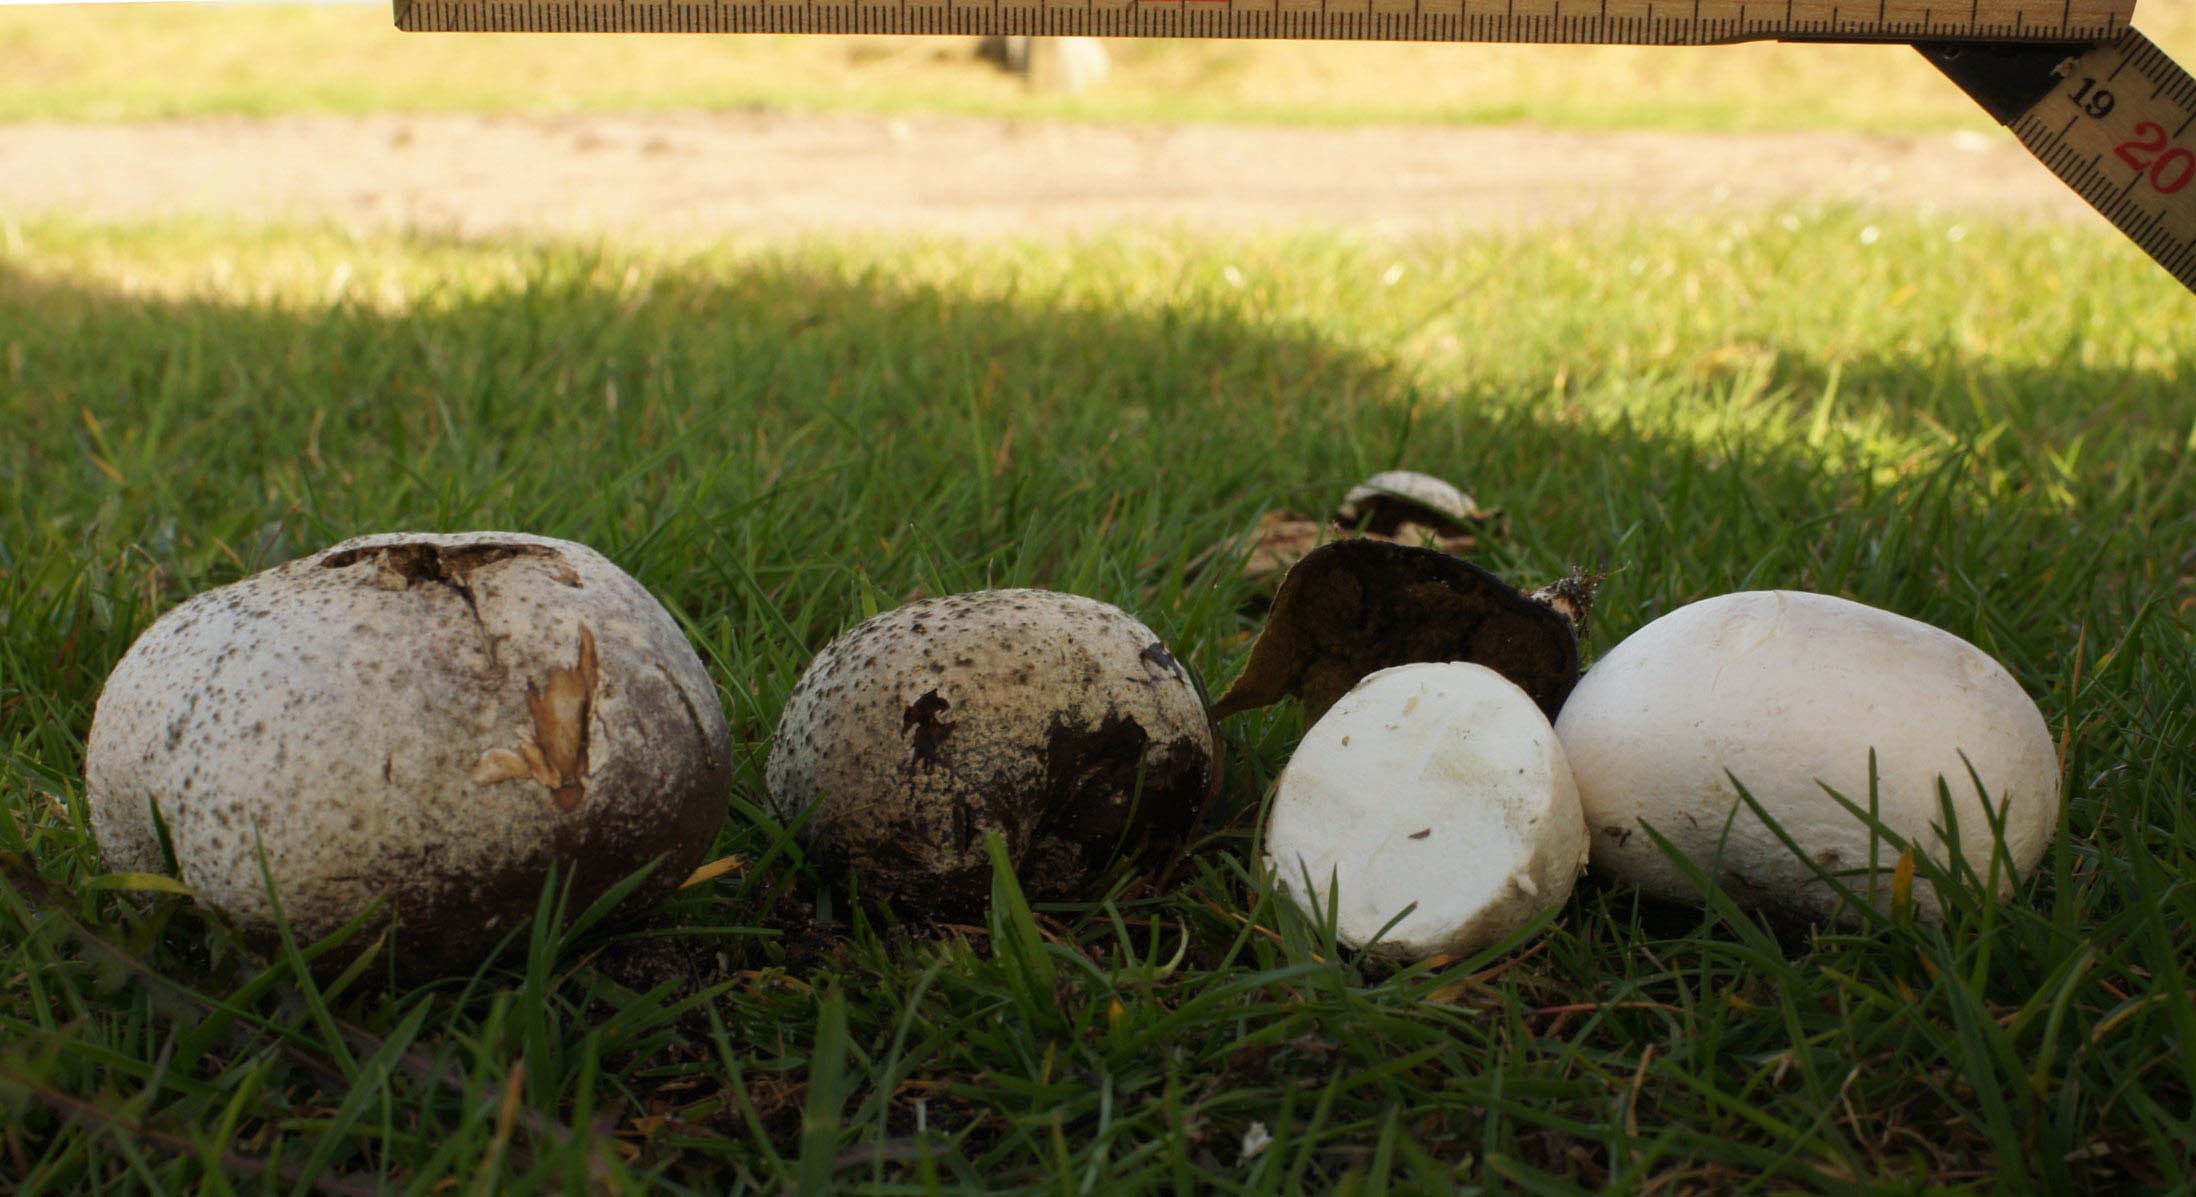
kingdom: Fungi
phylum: Basidiomycota
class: Agaricomycetes
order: Agaricales
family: Lycoperdaceae
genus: Bovista
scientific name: Bovista nigrescens
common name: sortagtig bovist
